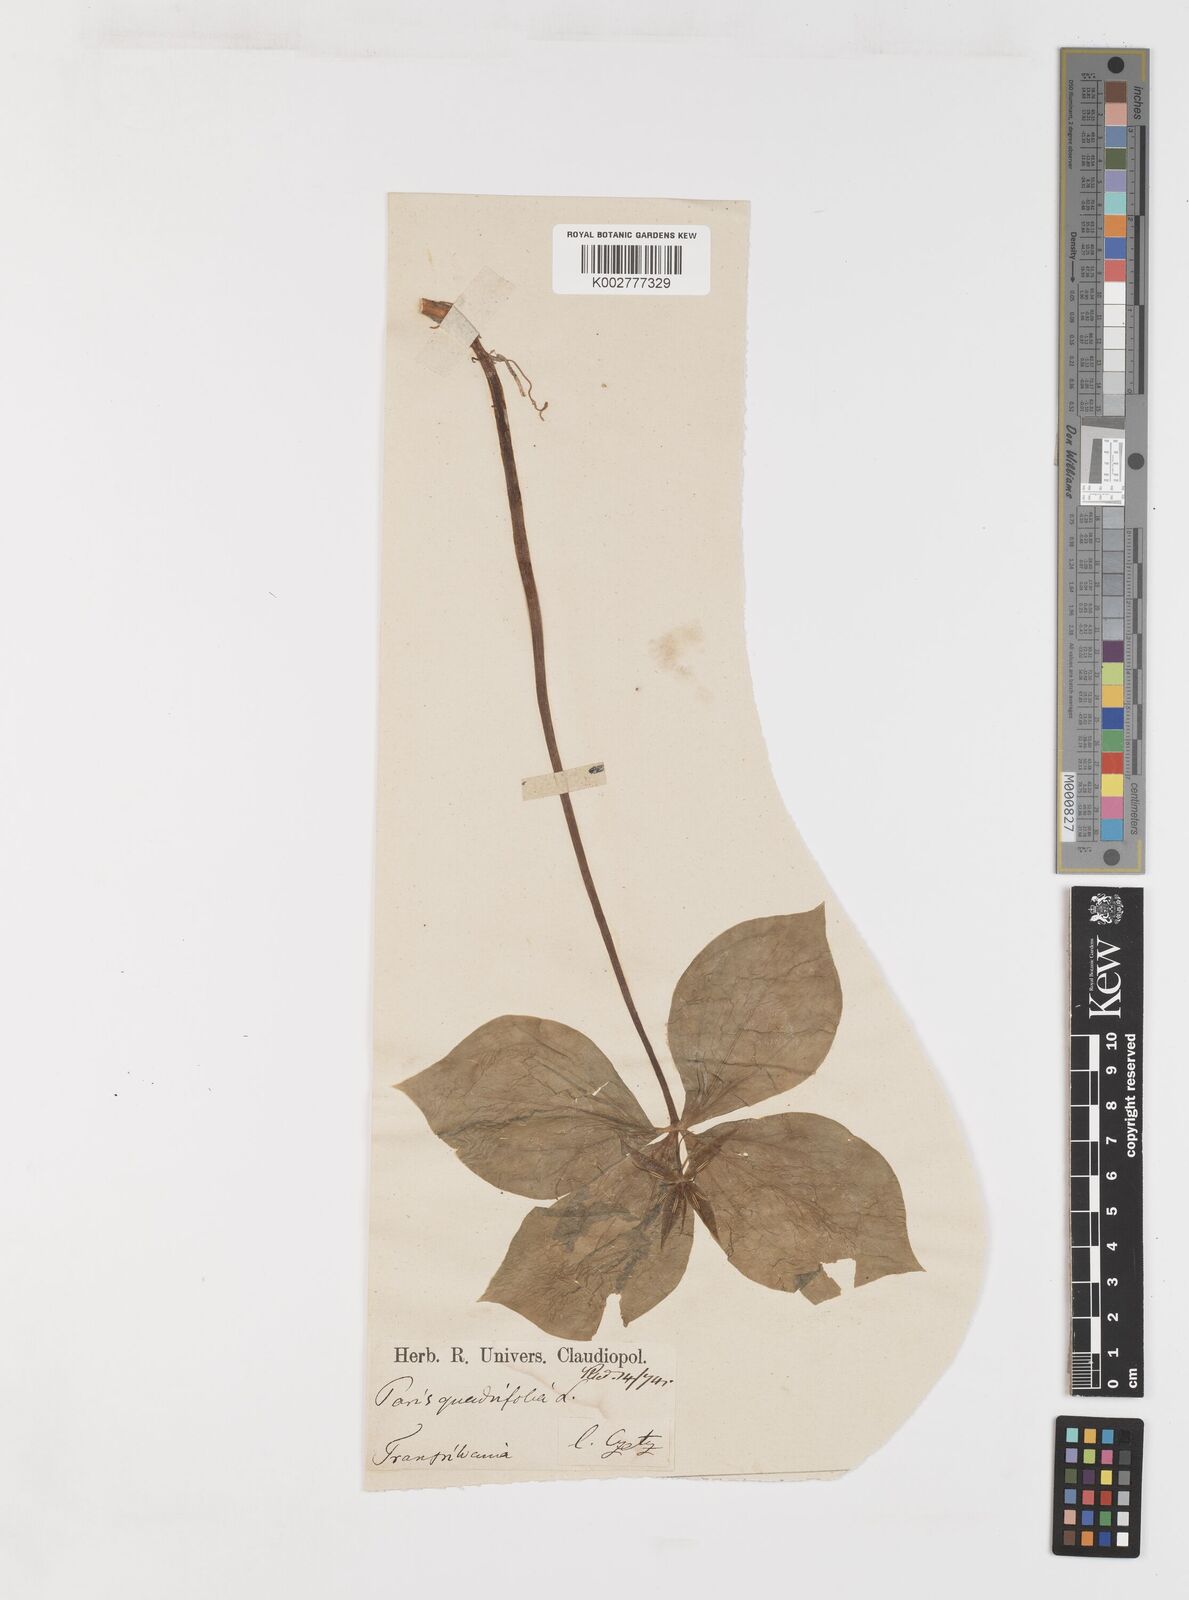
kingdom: Plantae
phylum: Tracheophyta
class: Liliopsida
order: Liliales
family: Melanthiaceae
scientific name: Melanthiaceae
